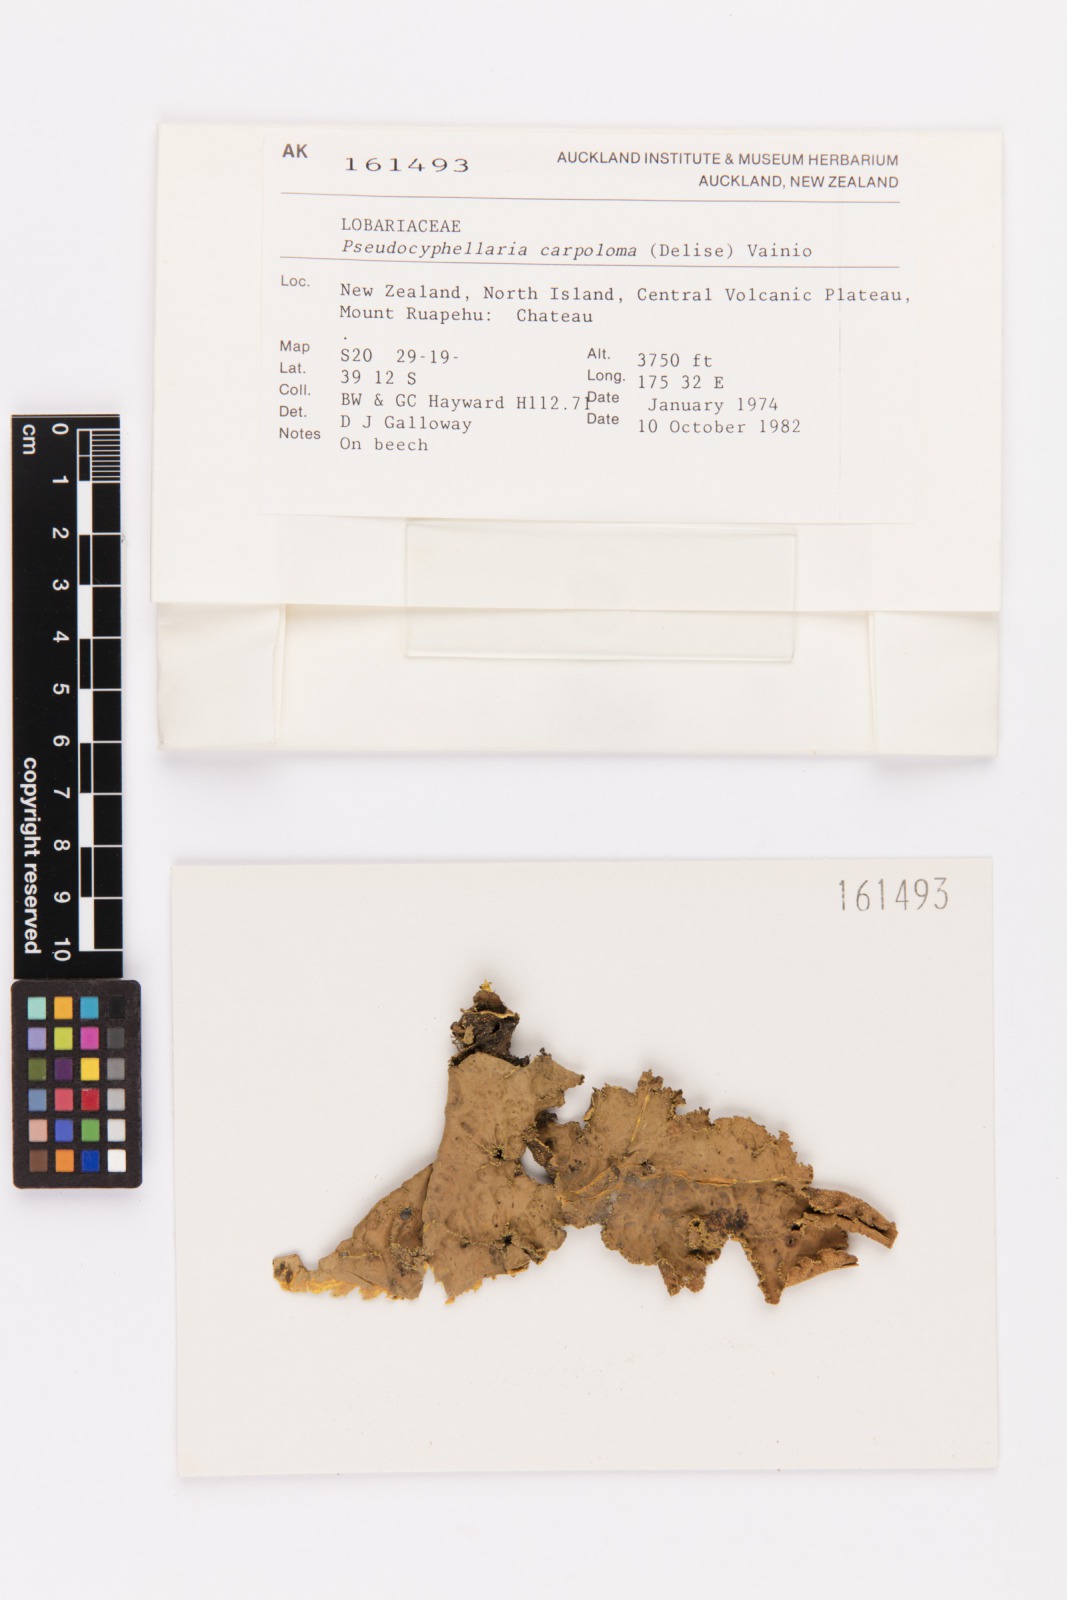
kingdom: Fungi
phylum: Ascomycota
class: Lecanoromycetes
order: Peltigerales
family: Lobariaceae
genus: Pseudocyphellaria
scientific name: Pseudocyphellaria carpoloma
